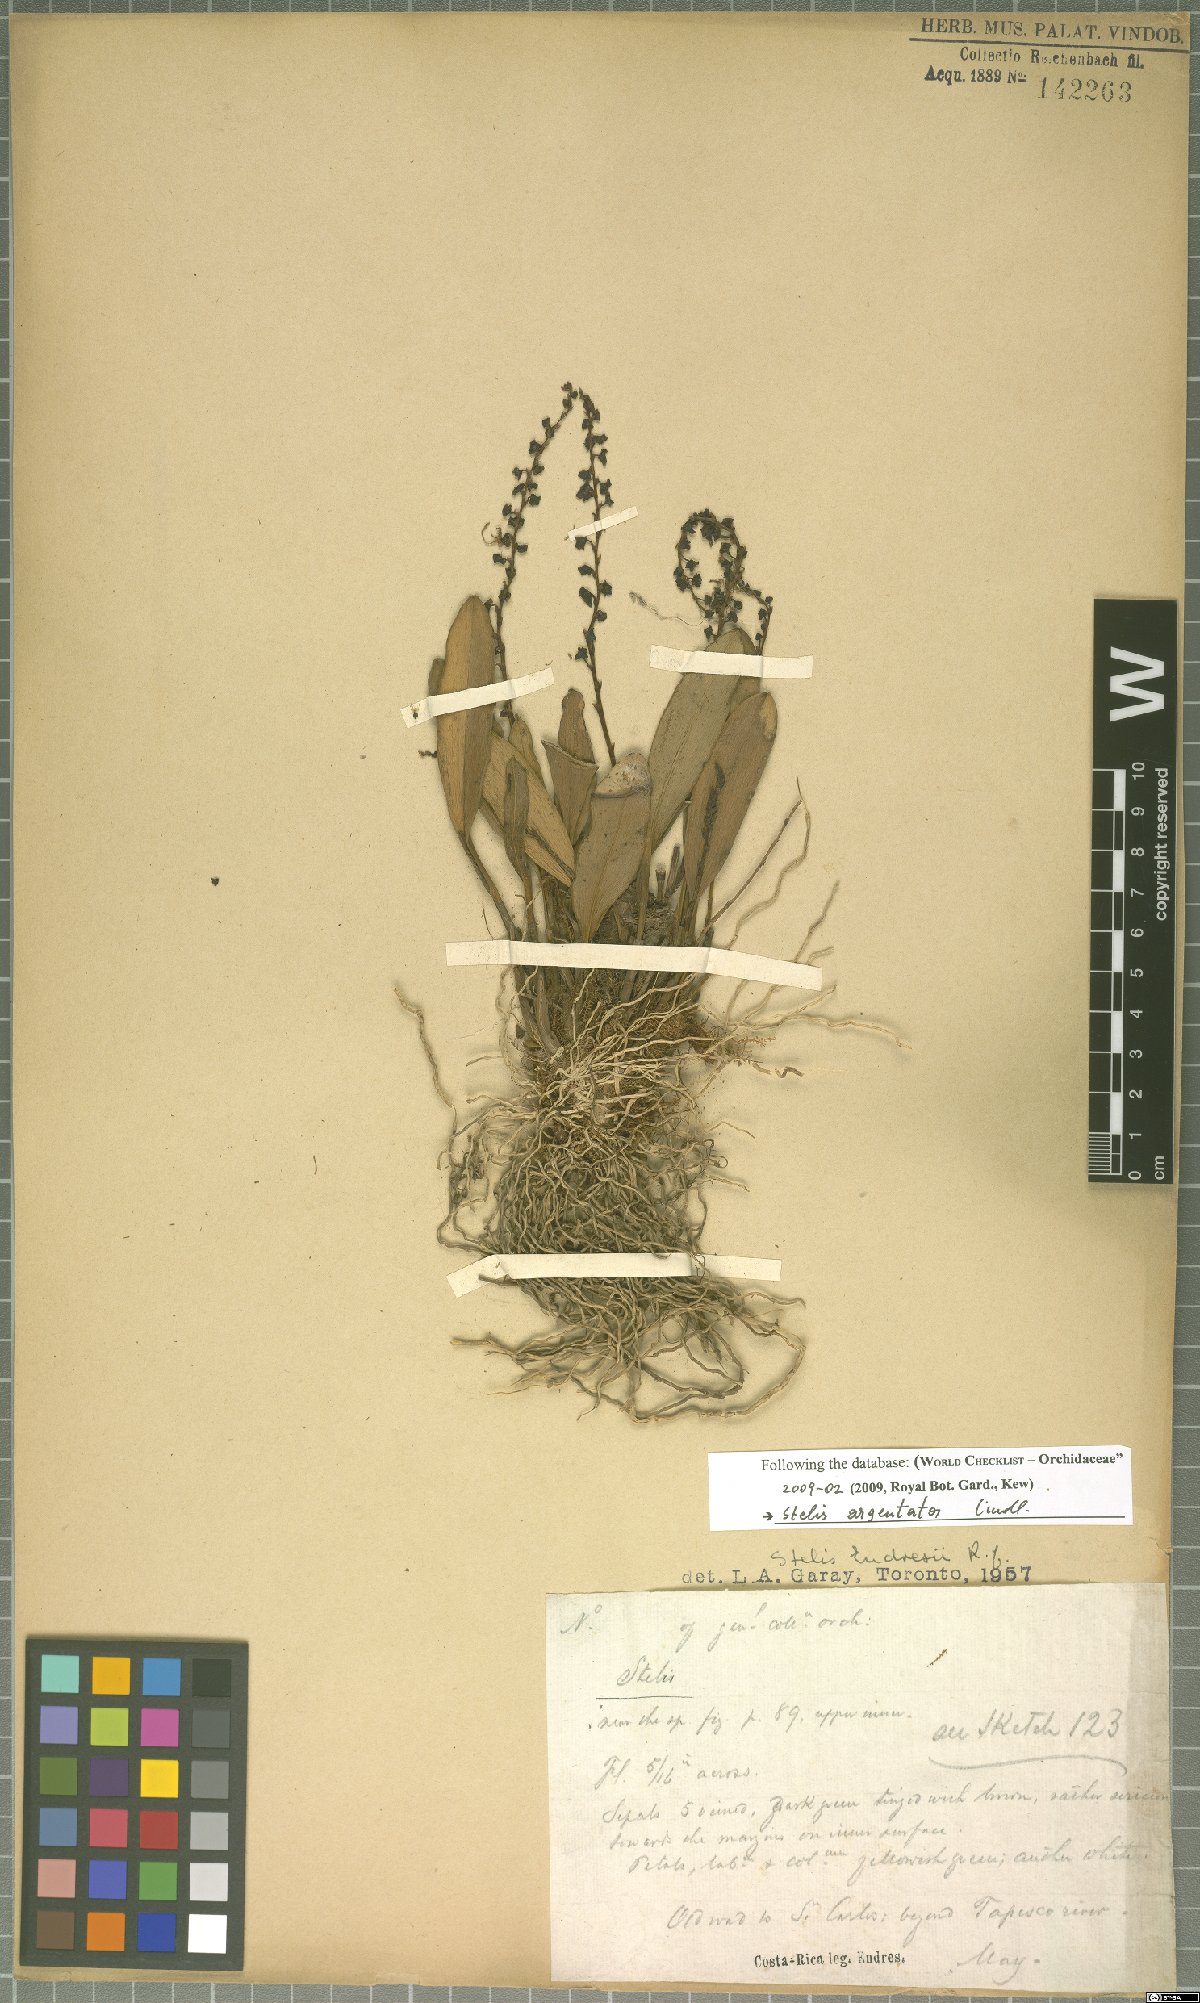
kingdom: Plantae
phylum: Tracheophyta
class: Liliopsida
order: Asparagales
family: Orchidaceae
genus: Stelis
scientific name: Stelis argentata
